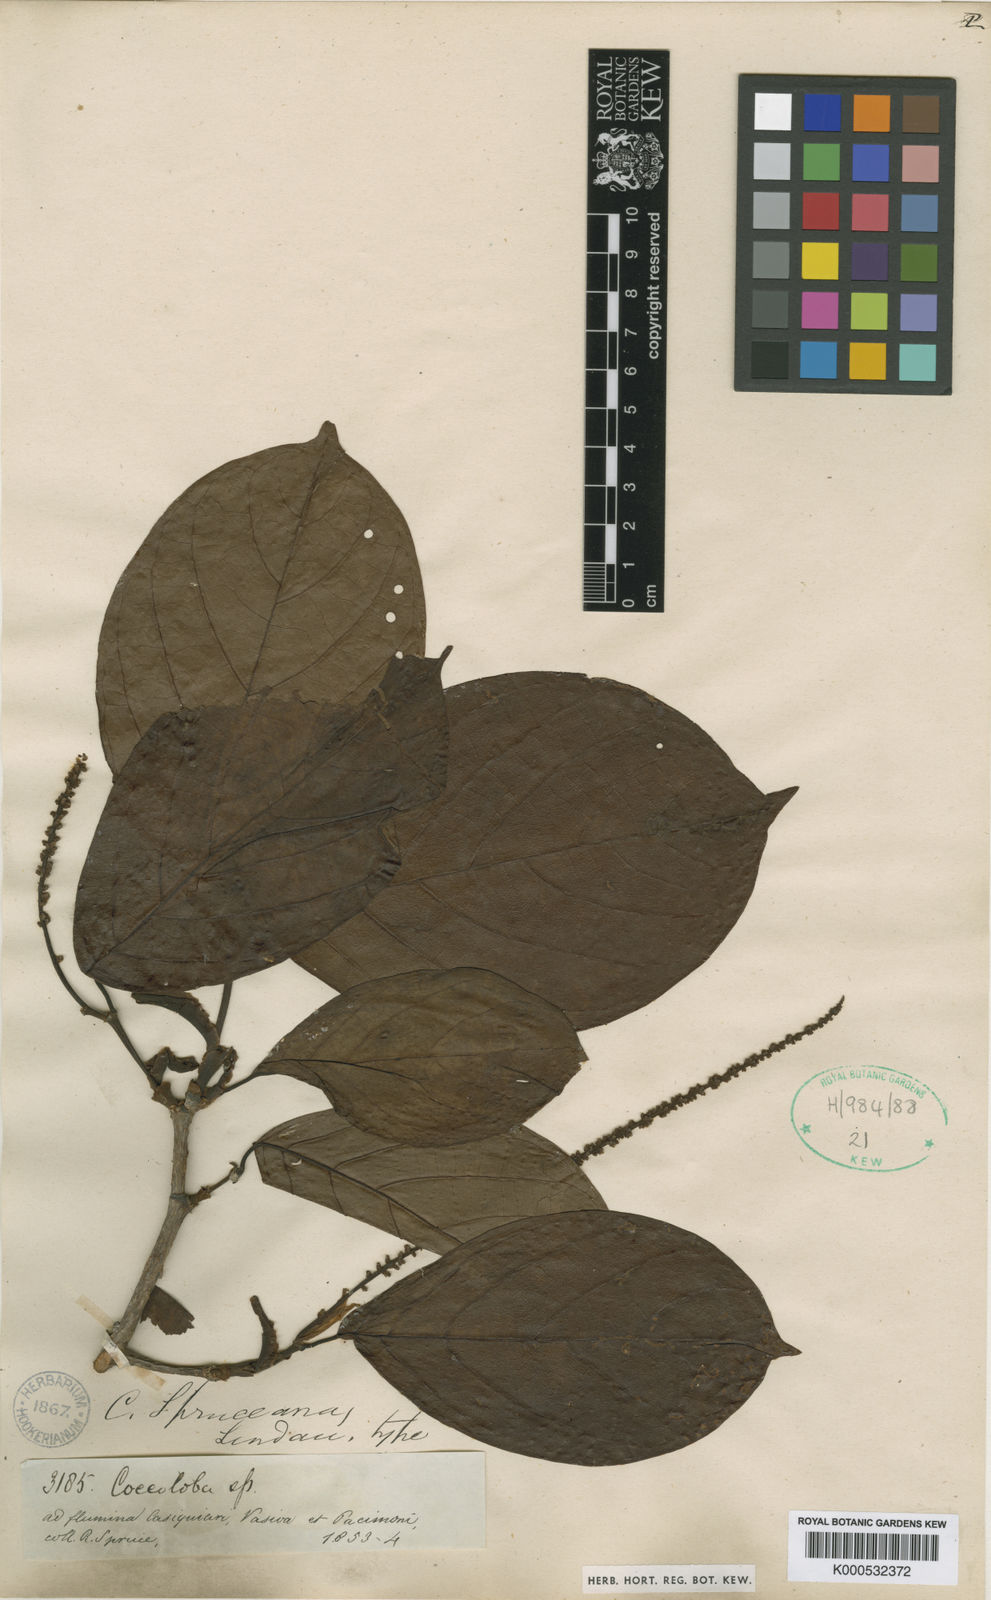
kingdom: Plantae
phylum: Tracheophyta
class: Magnoliopsida
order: Caryophyllales
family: Polygonaceae
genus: Coccoloba
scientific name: Coccoloba spruceana
